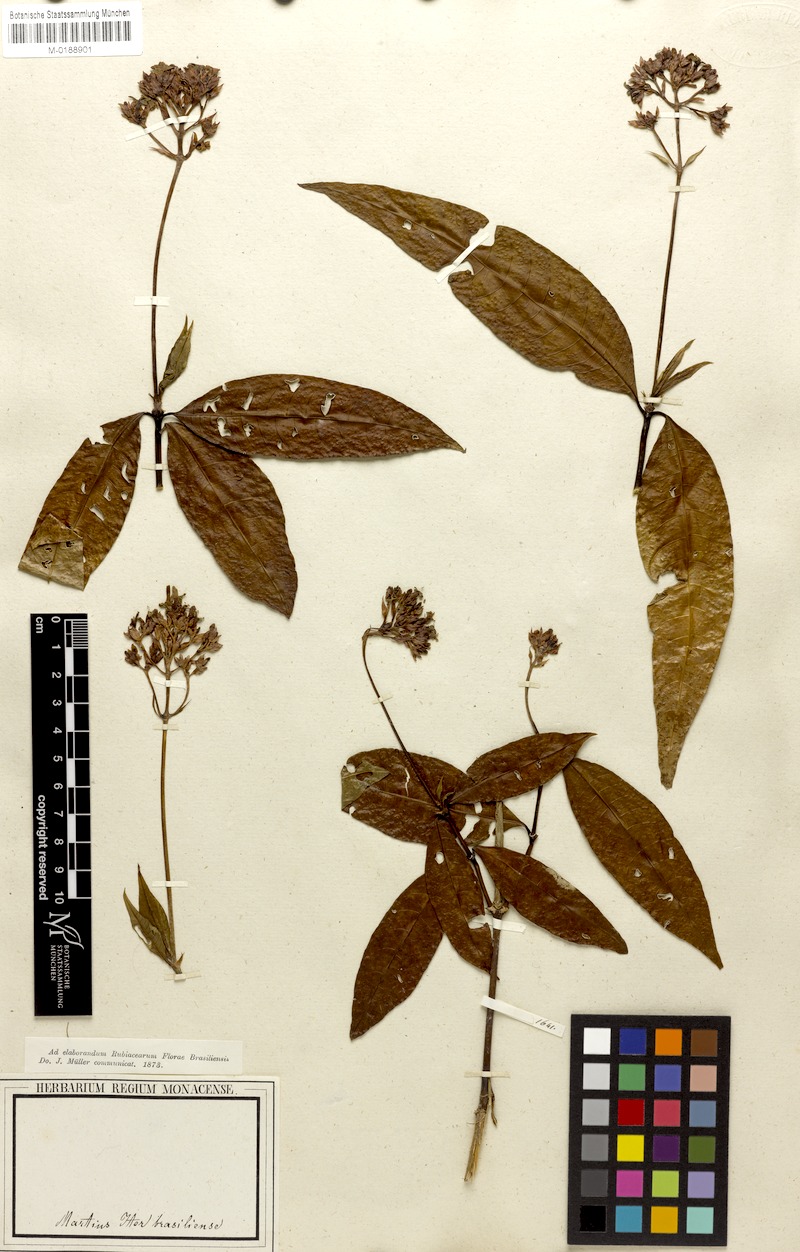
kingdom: Plantae
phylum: Tracheophyta
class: Magnoliopsida
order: Gentianales
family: Rubiaceae
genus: Palicourea
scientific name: Palicourea maguireorum
